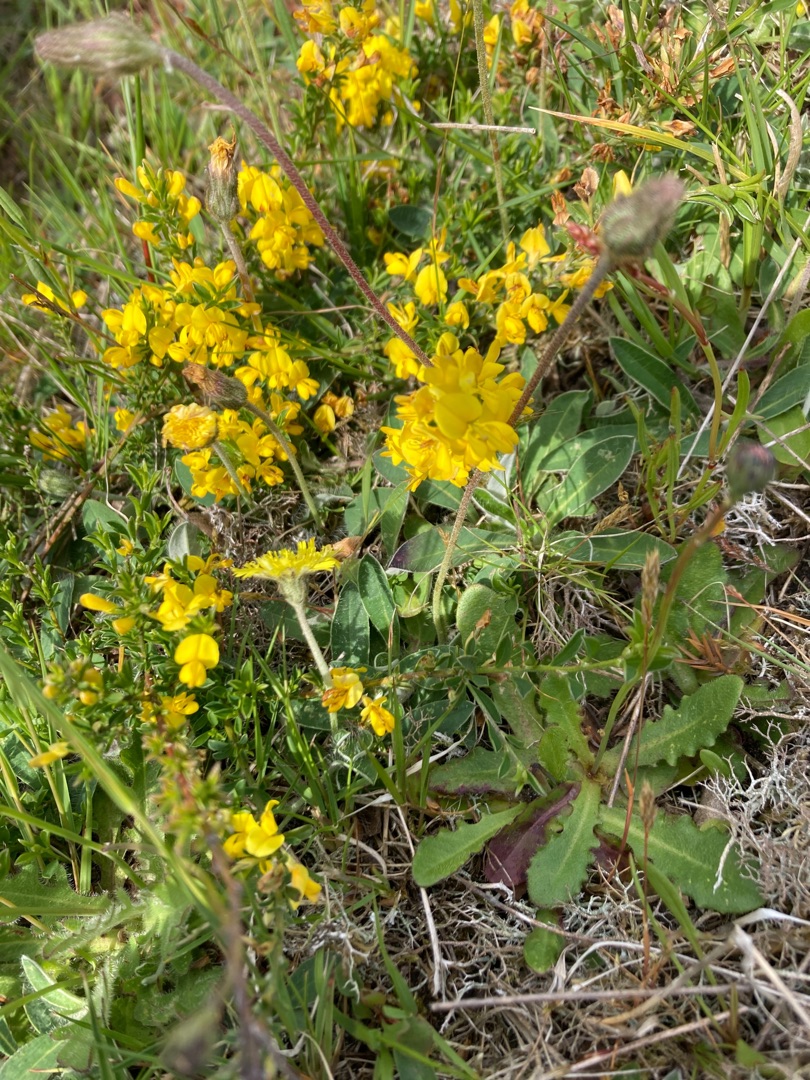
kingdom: Plantae
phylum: Tracheophyta
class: Magnoliopsida
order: Fabales
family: Fabaceae
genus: Genista
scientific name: Genista pilosa
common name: Håret visse
